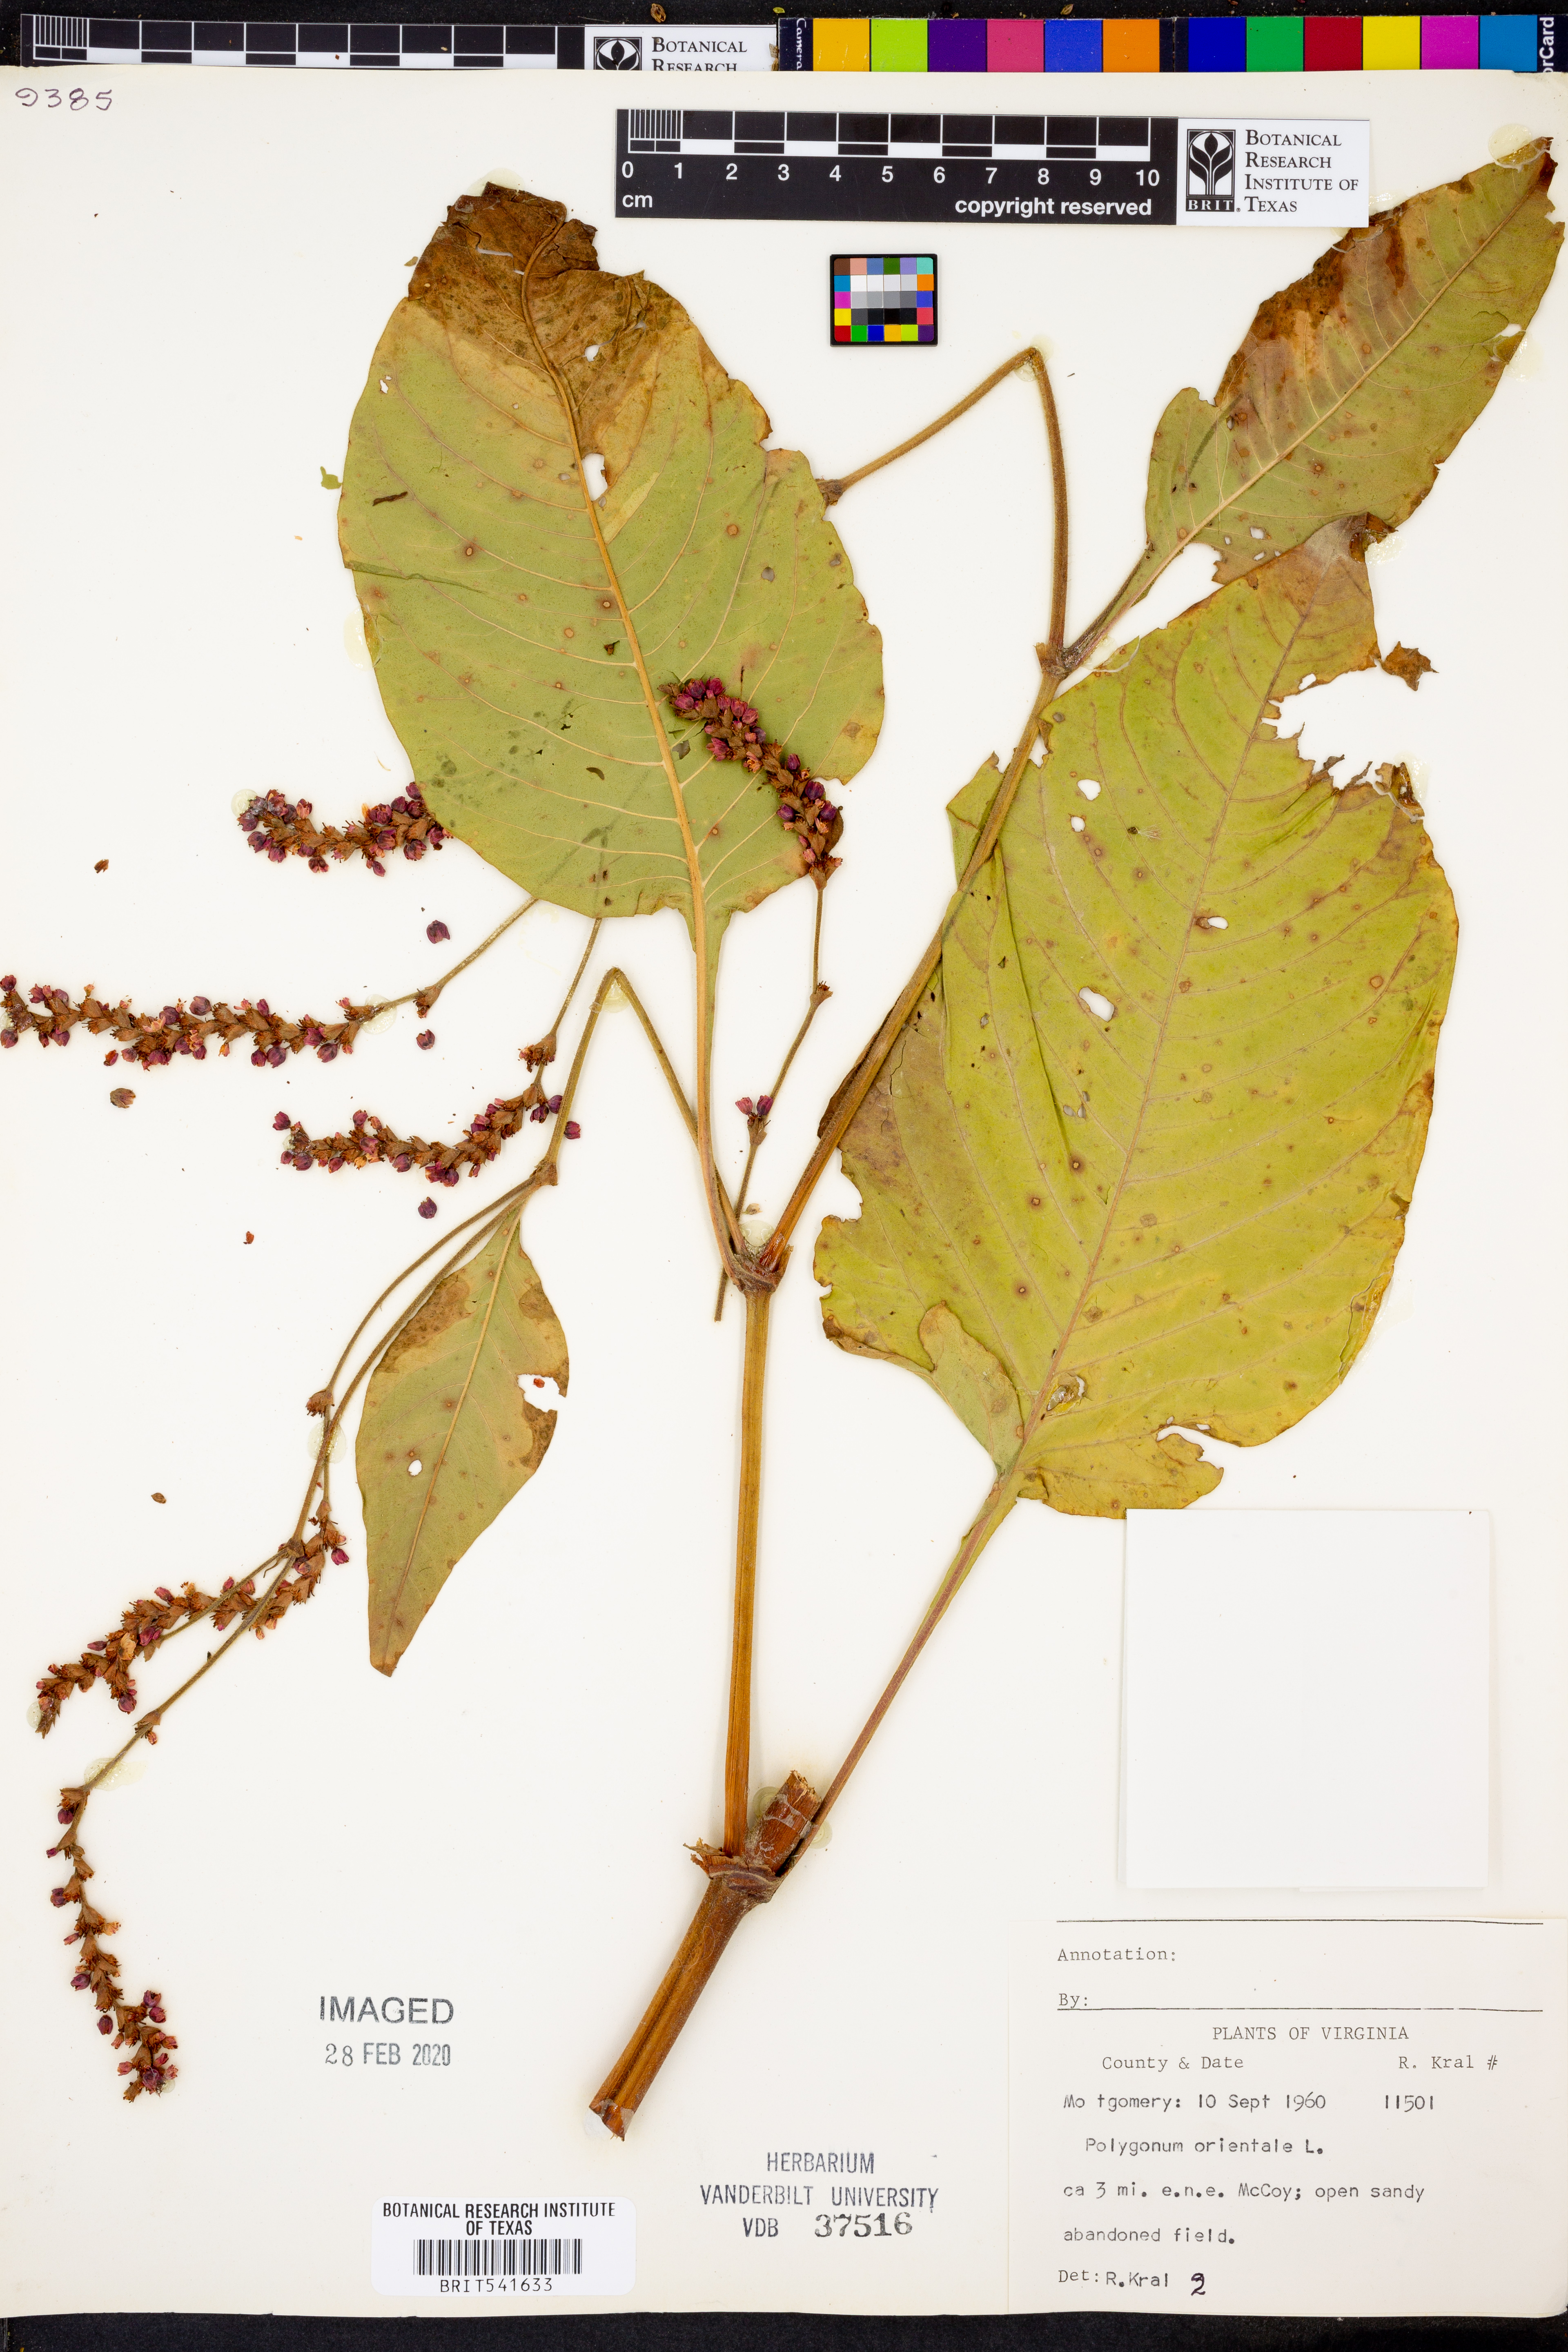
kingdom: Plantae
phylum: Tracheophyta
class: Magnoliopsida
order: Caryophyllales
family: Polygonaceae
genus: Persicaria
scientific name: Persicaria orientalis
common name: Kiss-me-over-the-garden-gate
